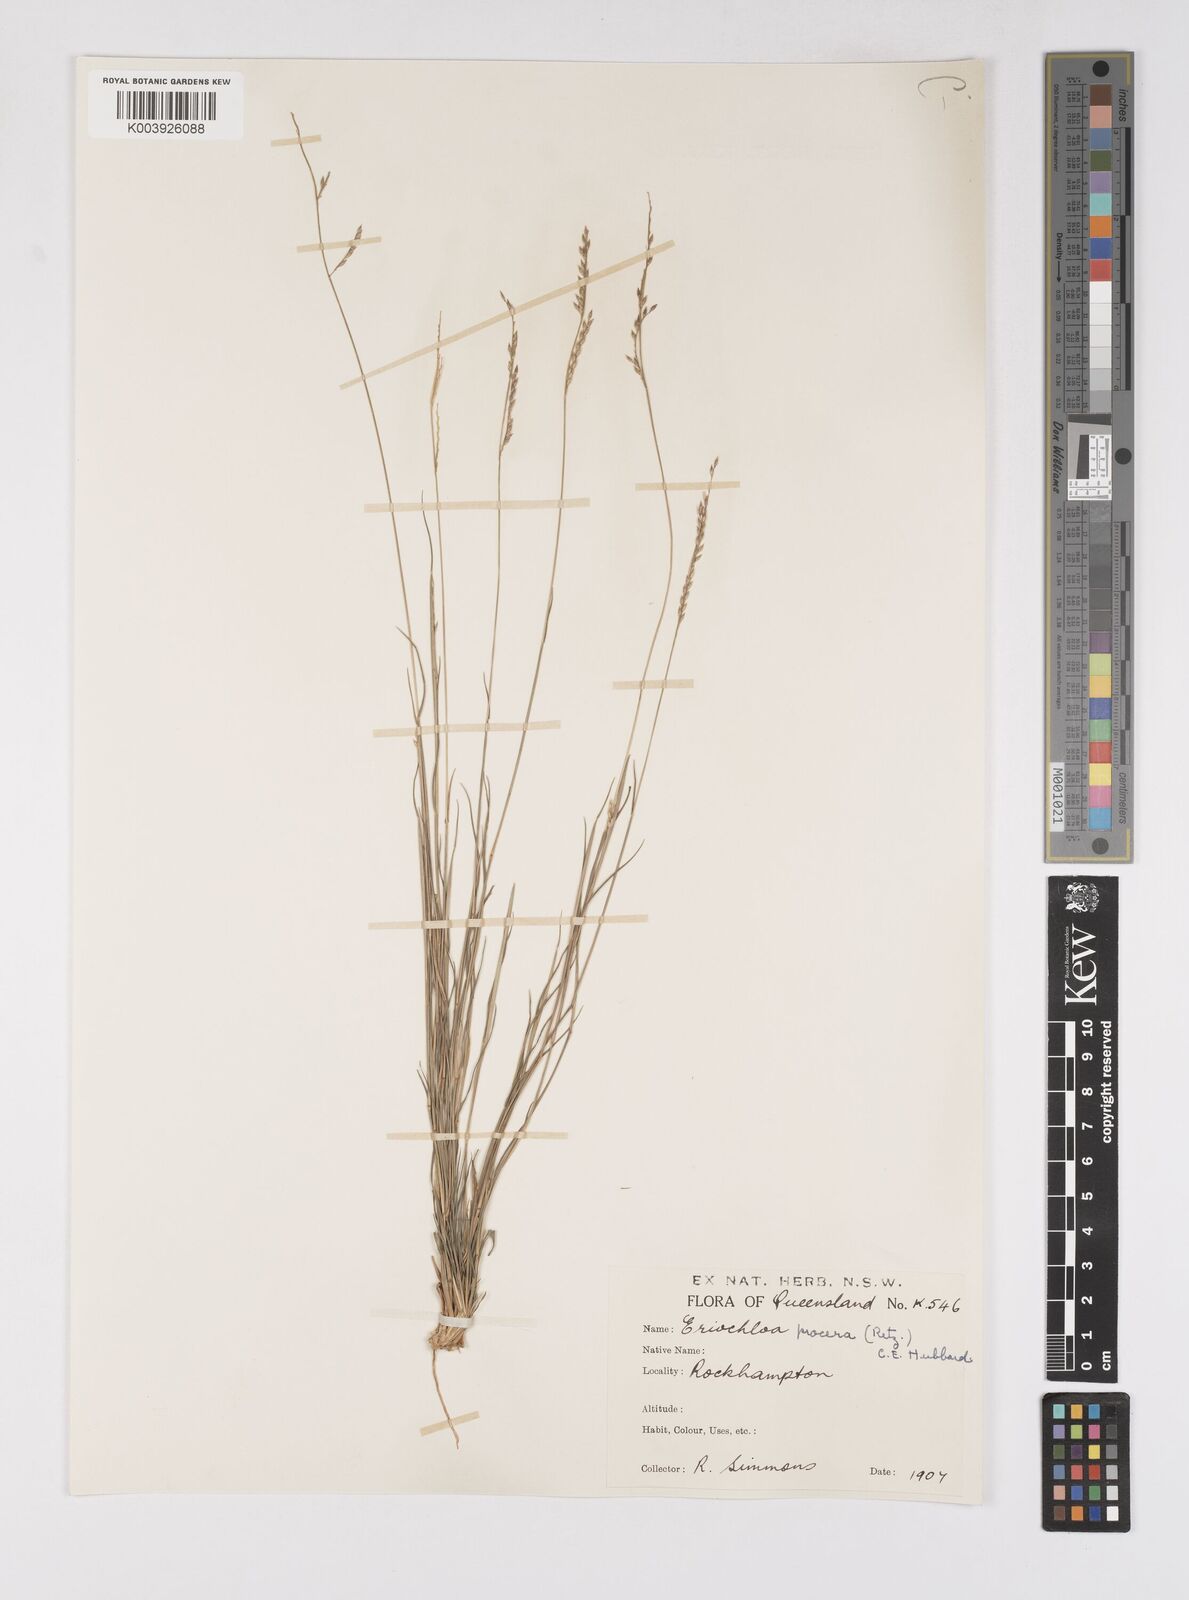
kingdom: Plantae
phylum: Tracheophyta
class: Liliopsida
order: Poales
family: Poaceae
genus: Eriochloa
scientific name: Eriochloa
